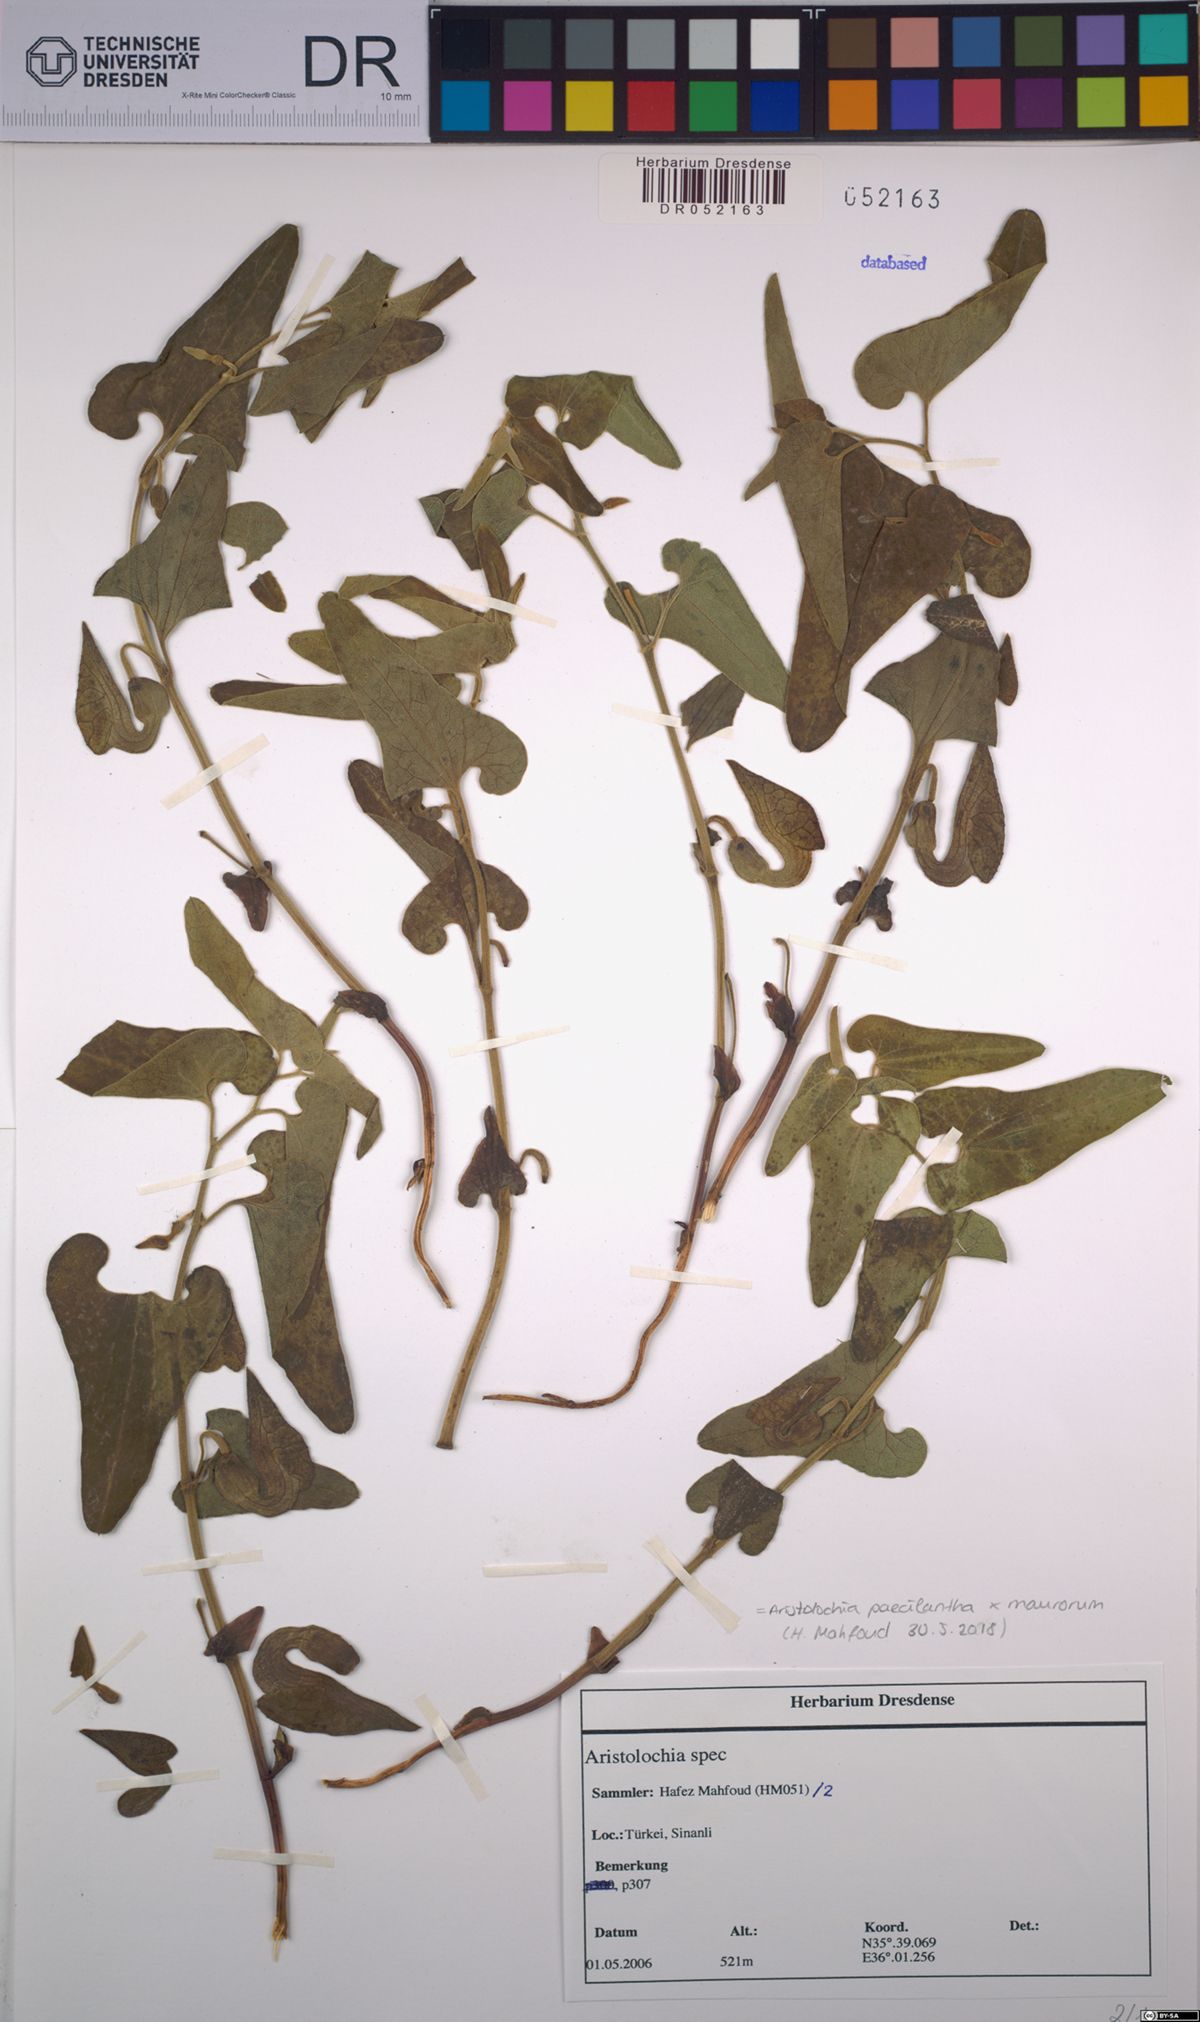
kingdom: Plantae
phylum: Tracheophyta
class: Magnoliopsida
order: Piperales
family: Aristolochiaceae
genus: Aristolochia
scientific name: Aristolochia paecilantha
